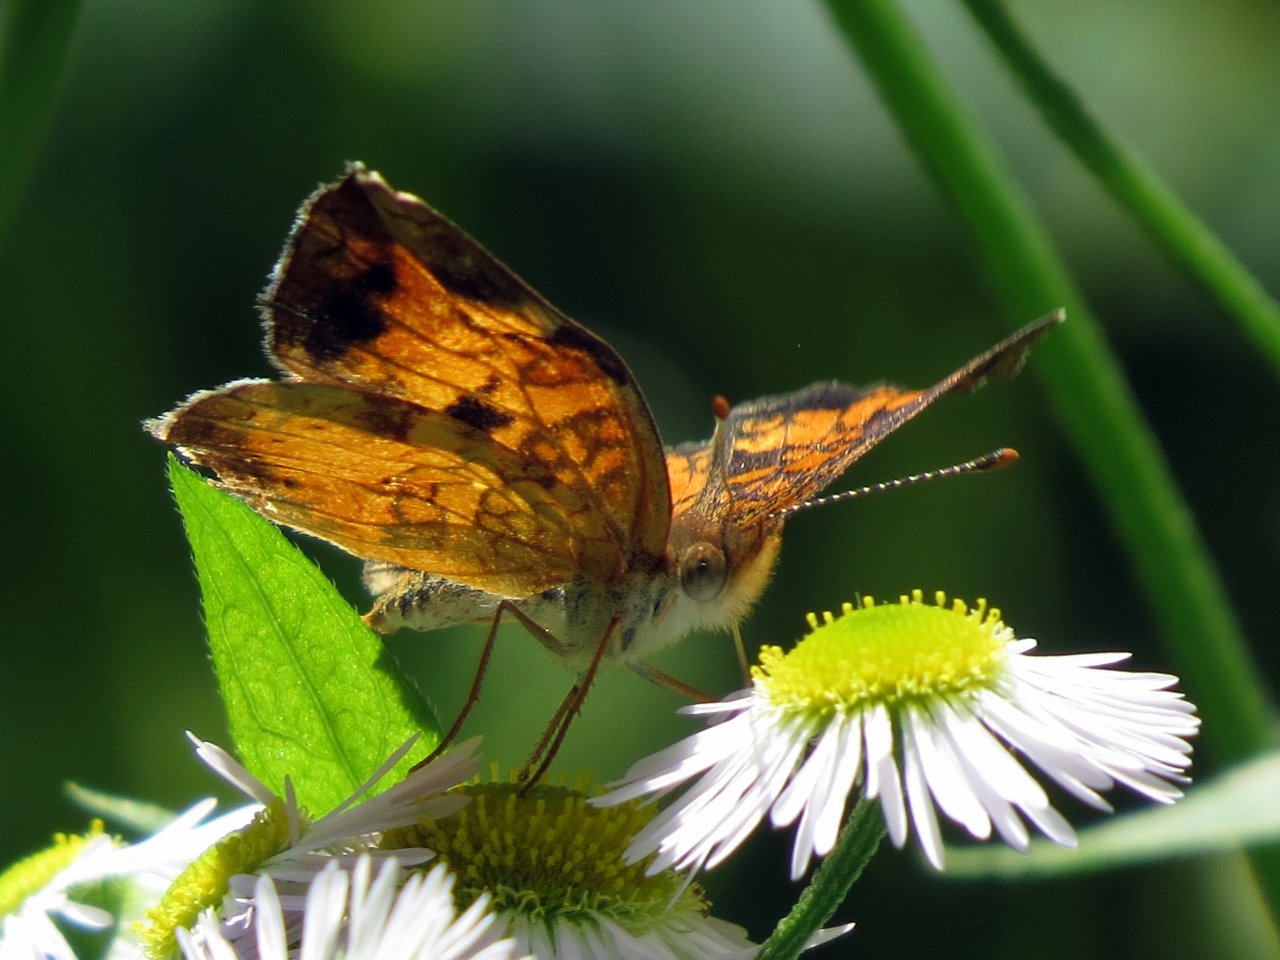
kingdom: Animalia
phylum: Arthropoda
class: Insecta
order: Lepidoptera
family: Nymphalidae
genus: Phyciodes
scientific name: Phyciodes tharos
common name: Northern Crescent
